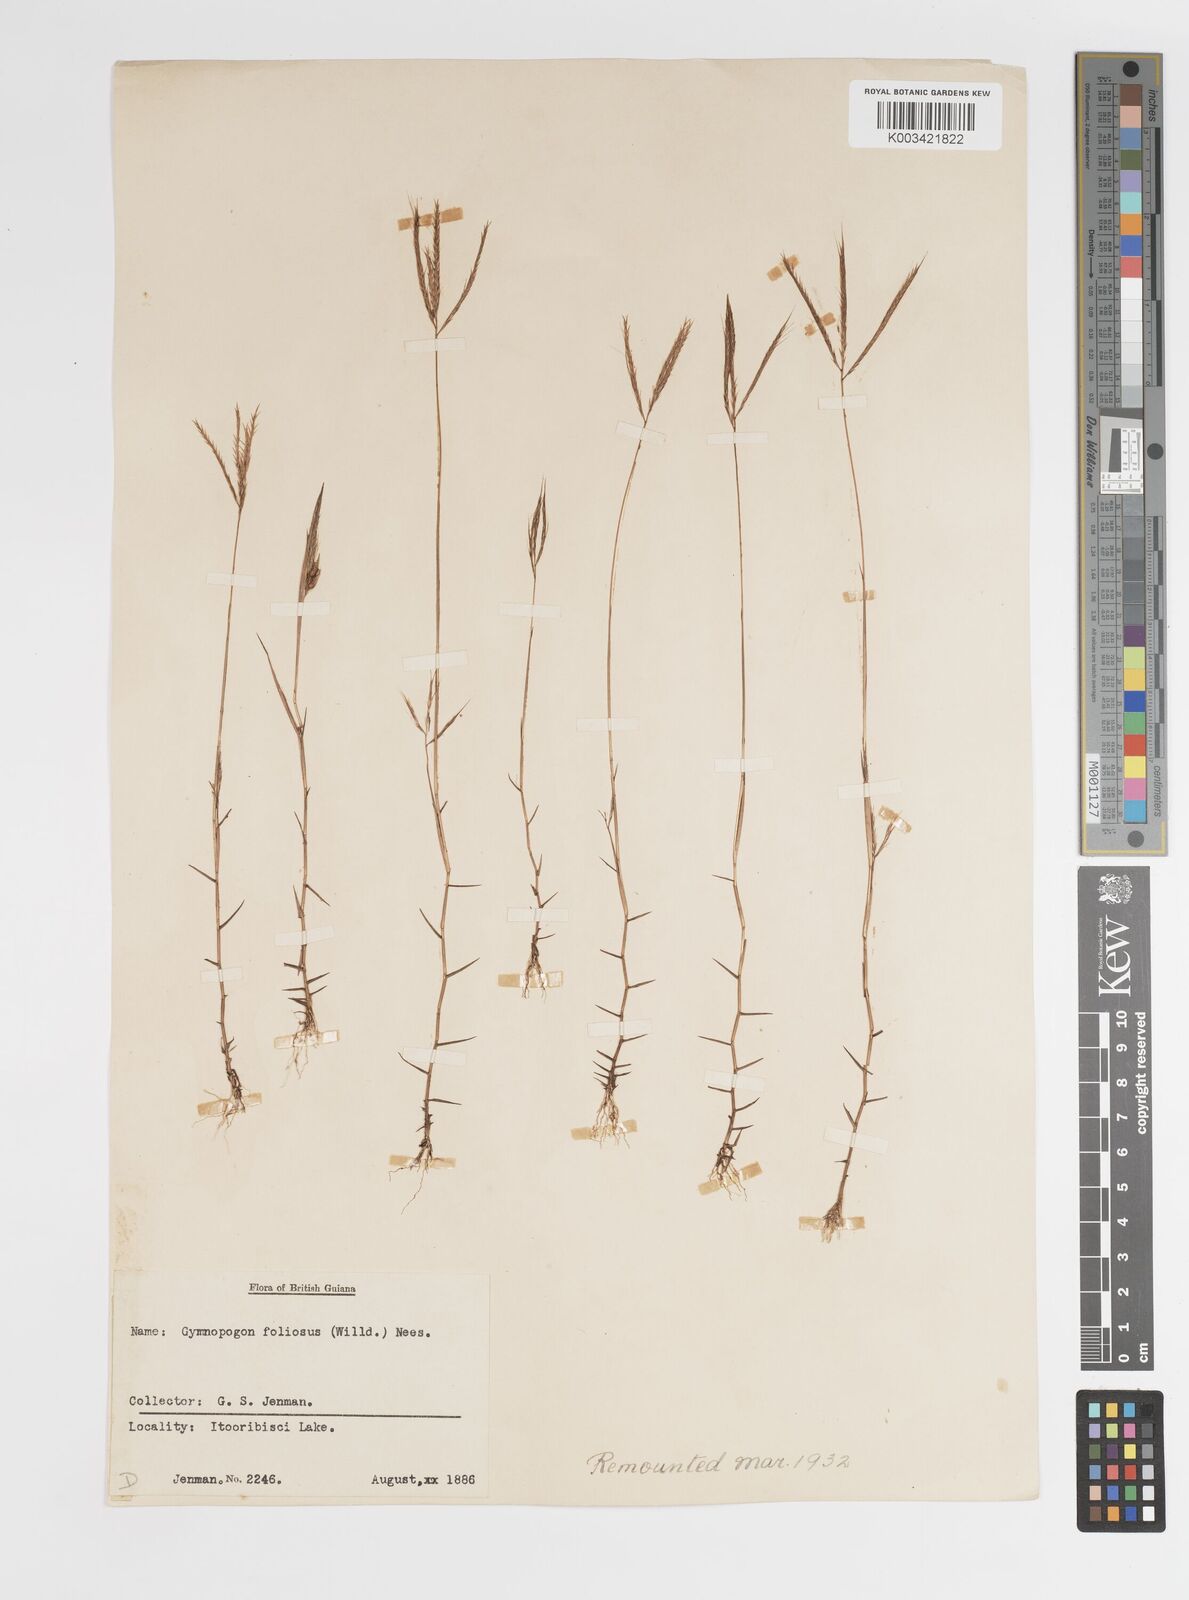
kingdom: Plantae
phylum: Tracheophyta
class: Liliopsida
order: Poales
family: Poaceae
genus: Gymnopogon
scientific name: Gymnopogon foliosus
